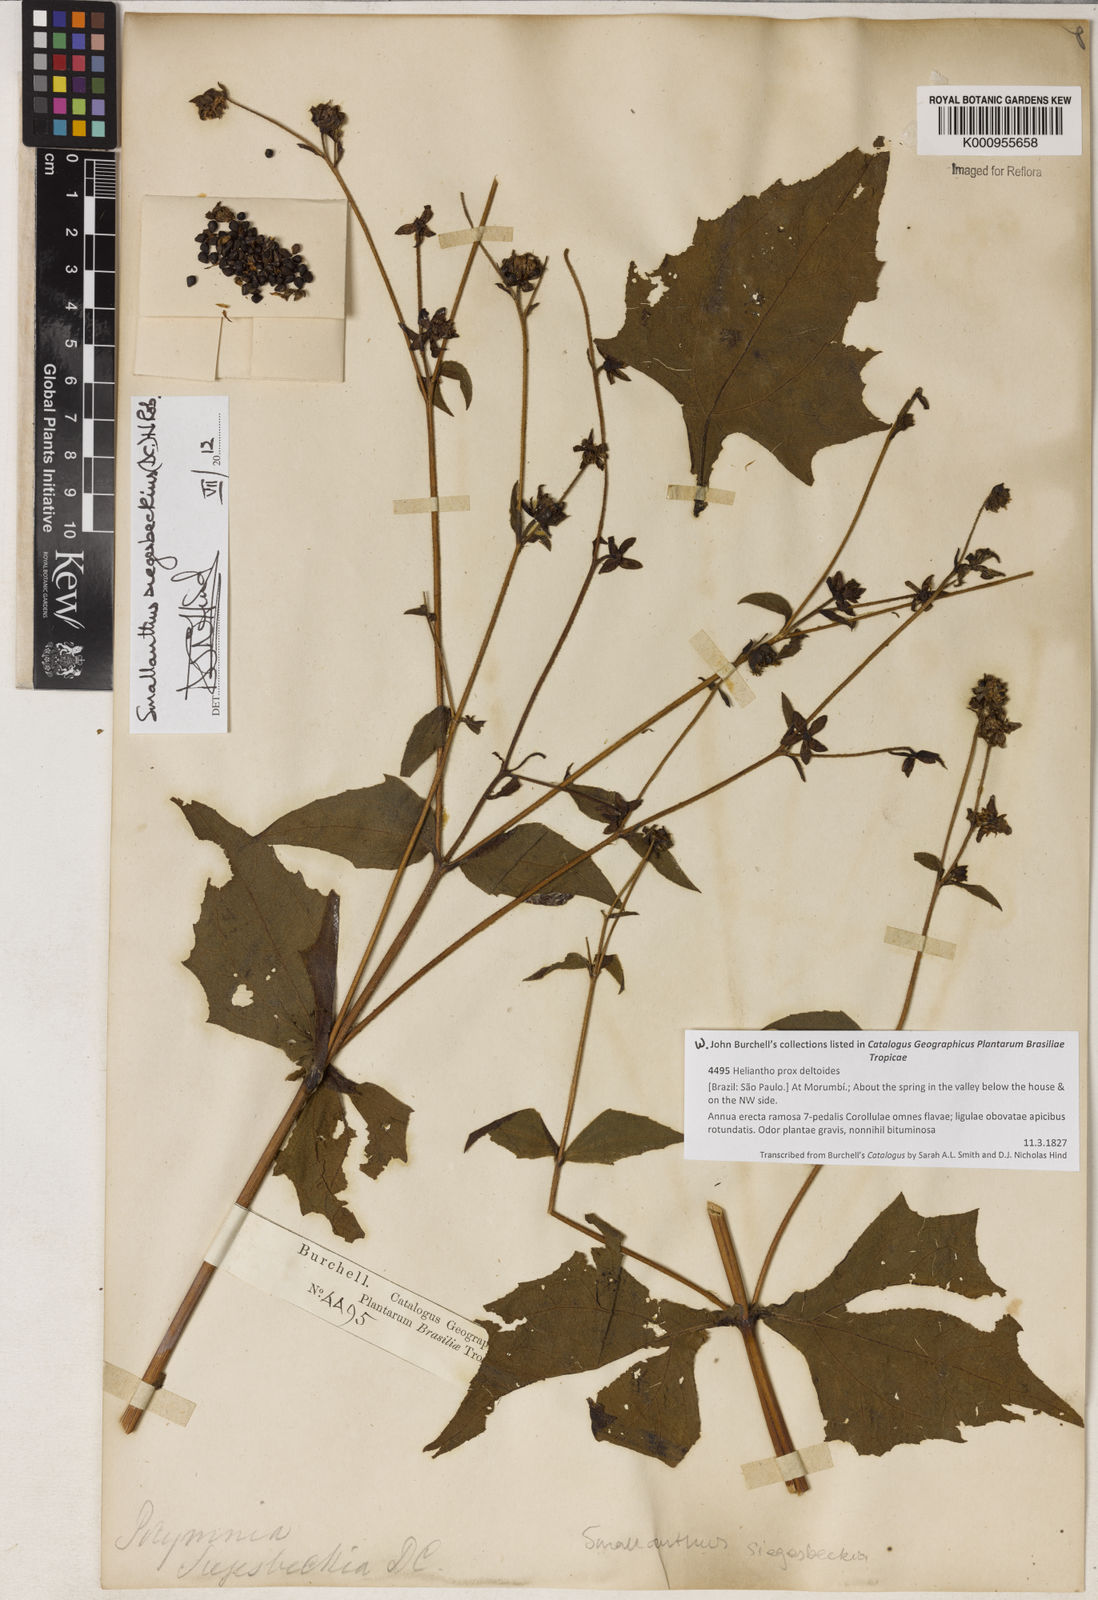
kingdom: Plantae
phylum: Tracheophyta
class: Magnoliopsida
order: Asterales
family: Asteraceae
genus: Smallanthus
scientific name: Smallanthus siegesbeckius
